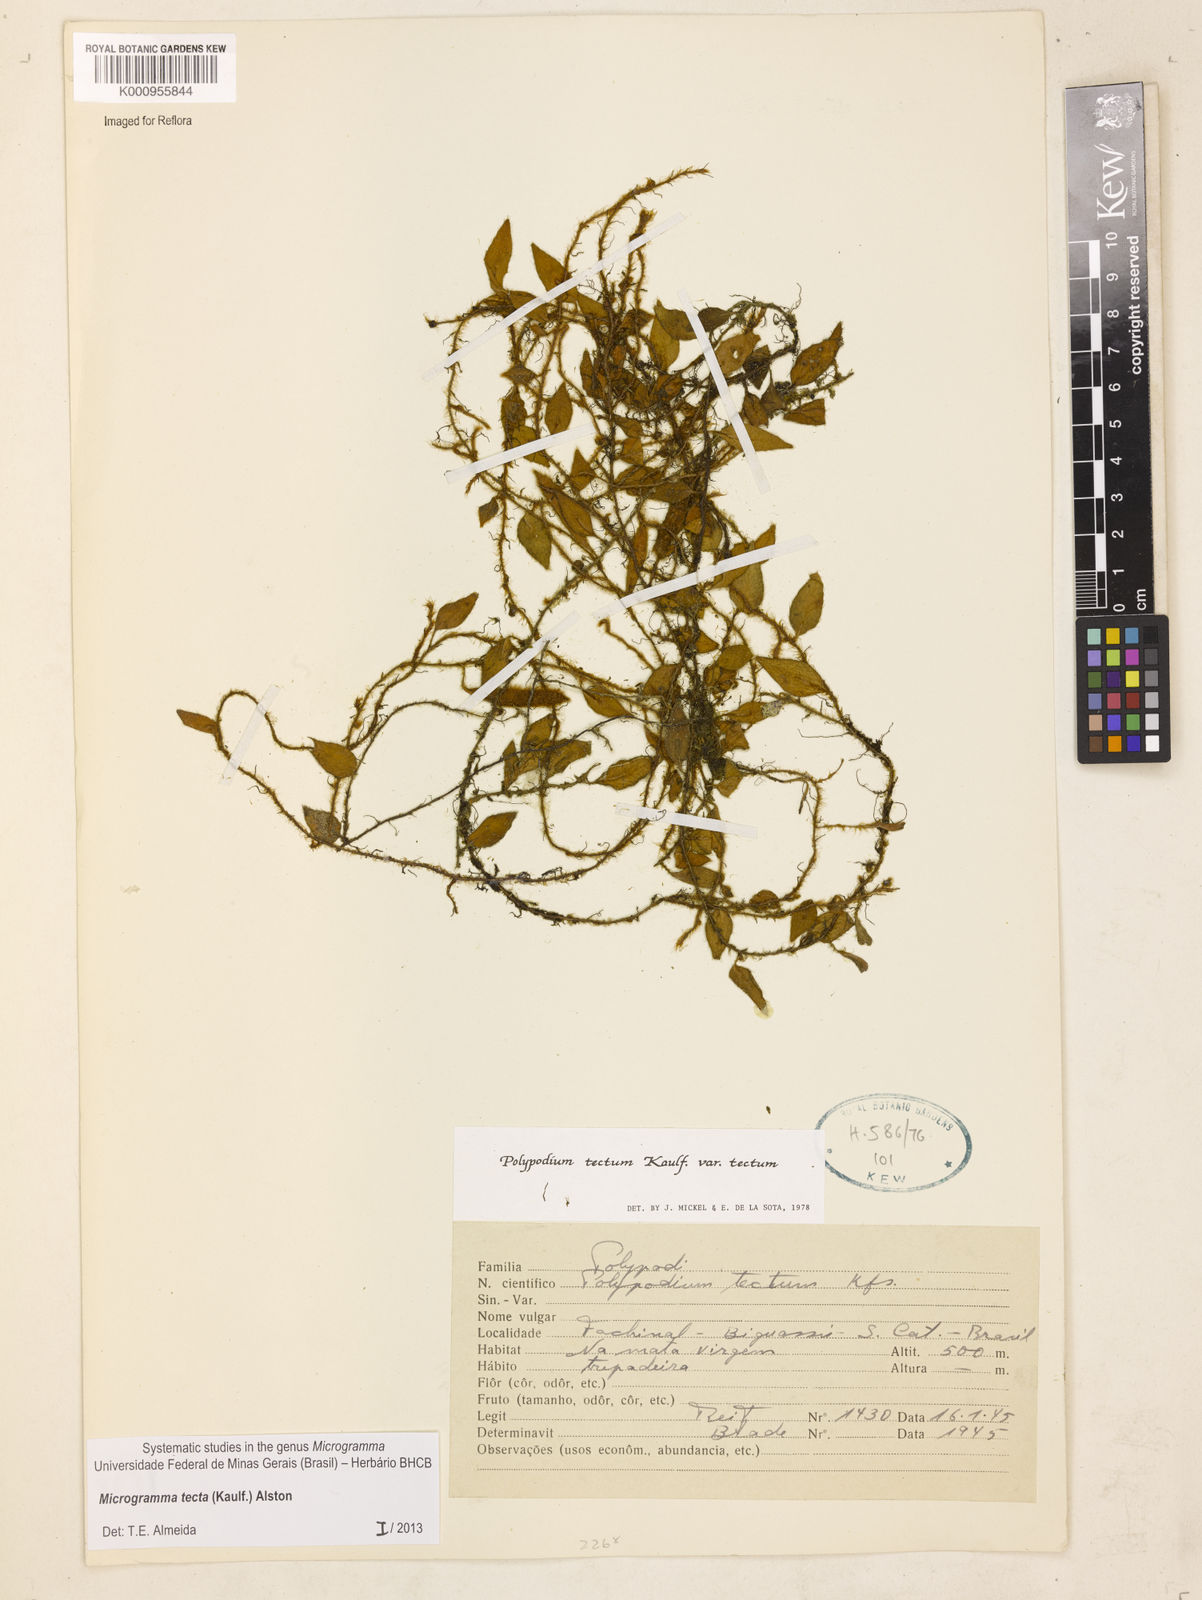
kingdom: Plantae
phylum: Tracheophyta
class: Polypodiopsida
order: Polypodiales
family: Polypodiaceae
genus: Microgramma
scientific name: Microgramma tecta
